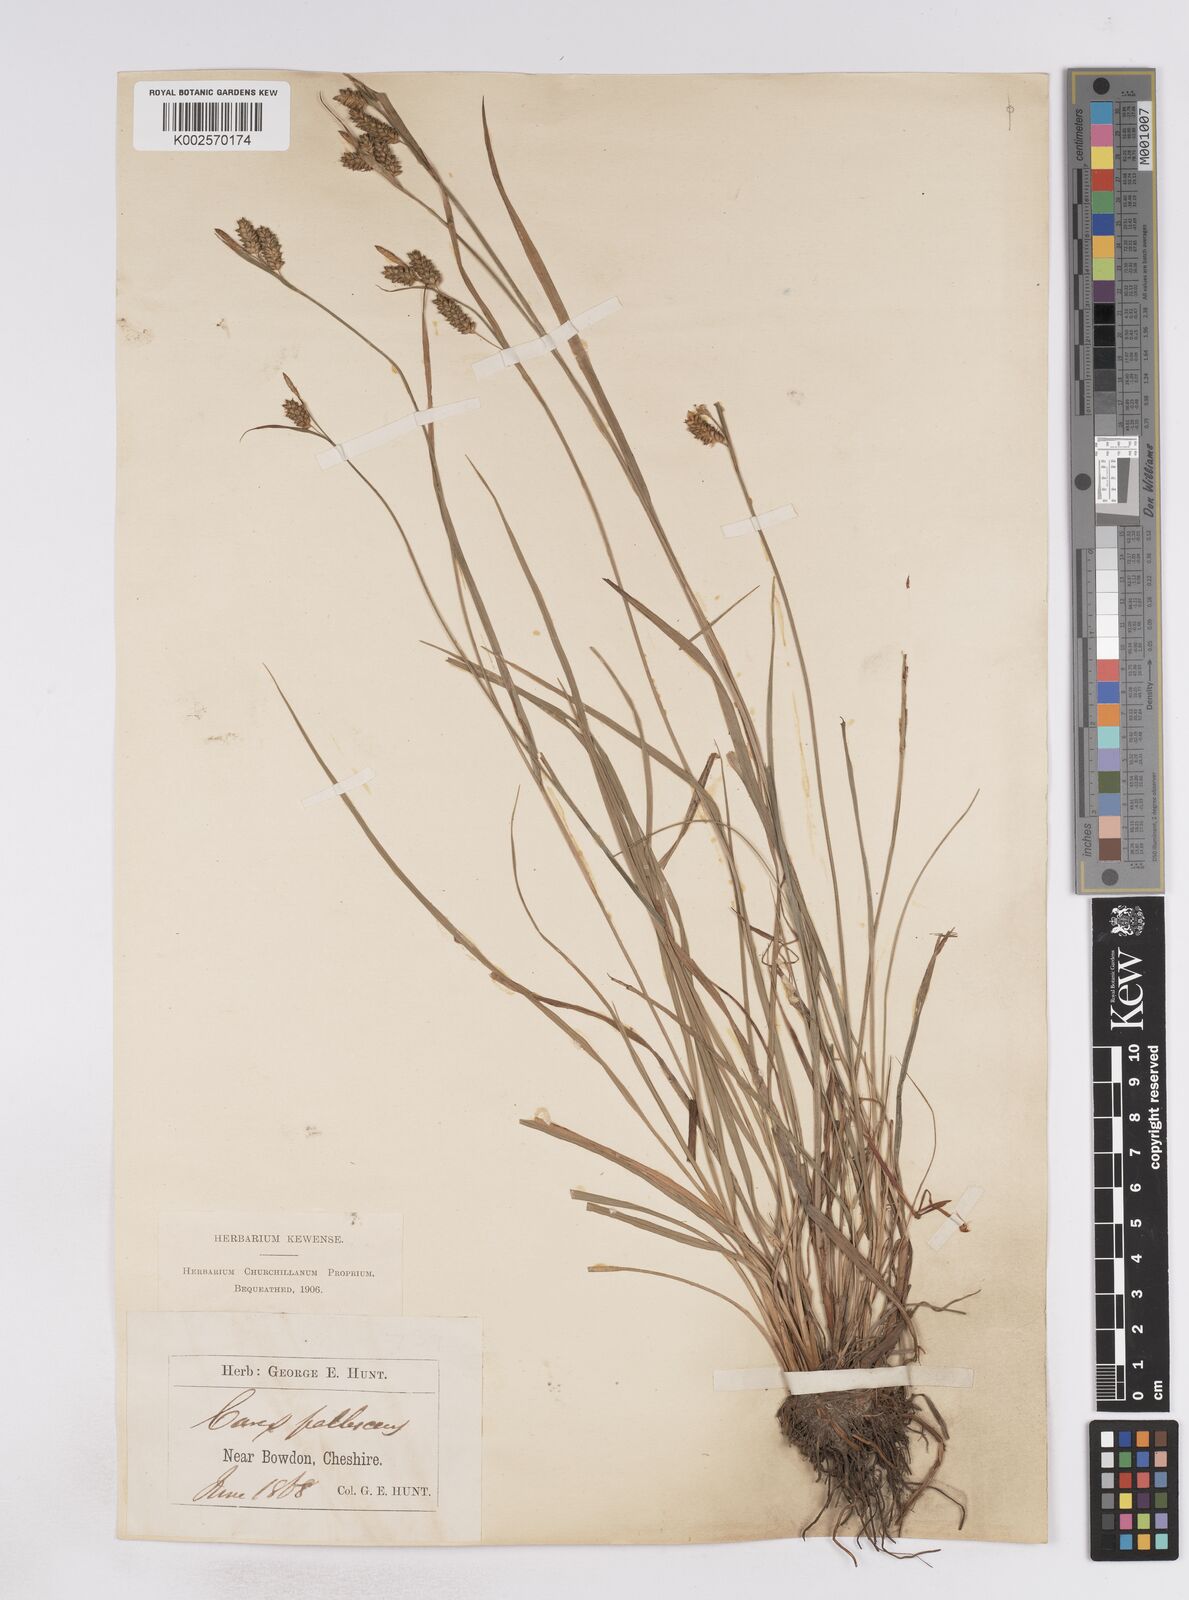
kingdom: Plantae
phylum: Tracheophyta
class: Liliopsida
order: Poales
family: Cyperaceae
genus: Carex
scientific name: Carex pallescens
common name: Pale sedge
